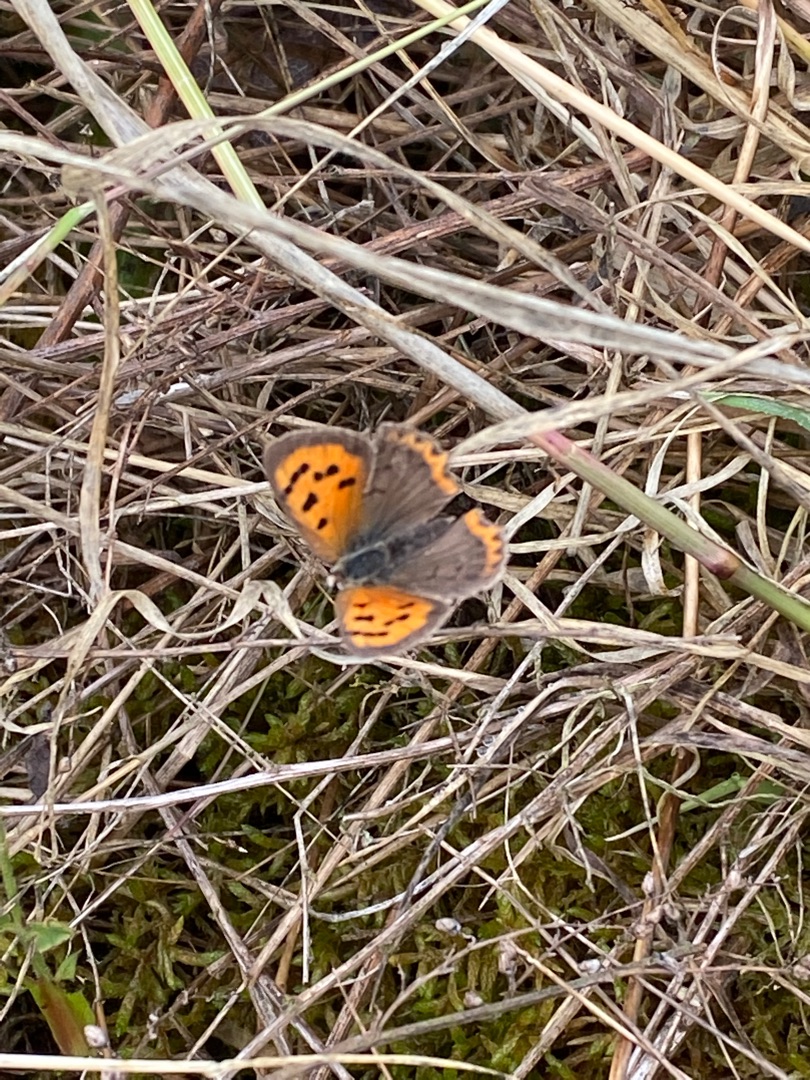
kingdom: Animalia
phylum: Arthropoda
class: Insecta
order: Lepidoptera
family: Lycaenidae
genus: Lycaena
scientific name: Lycaena phlaeas
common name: Lille ildfugl
